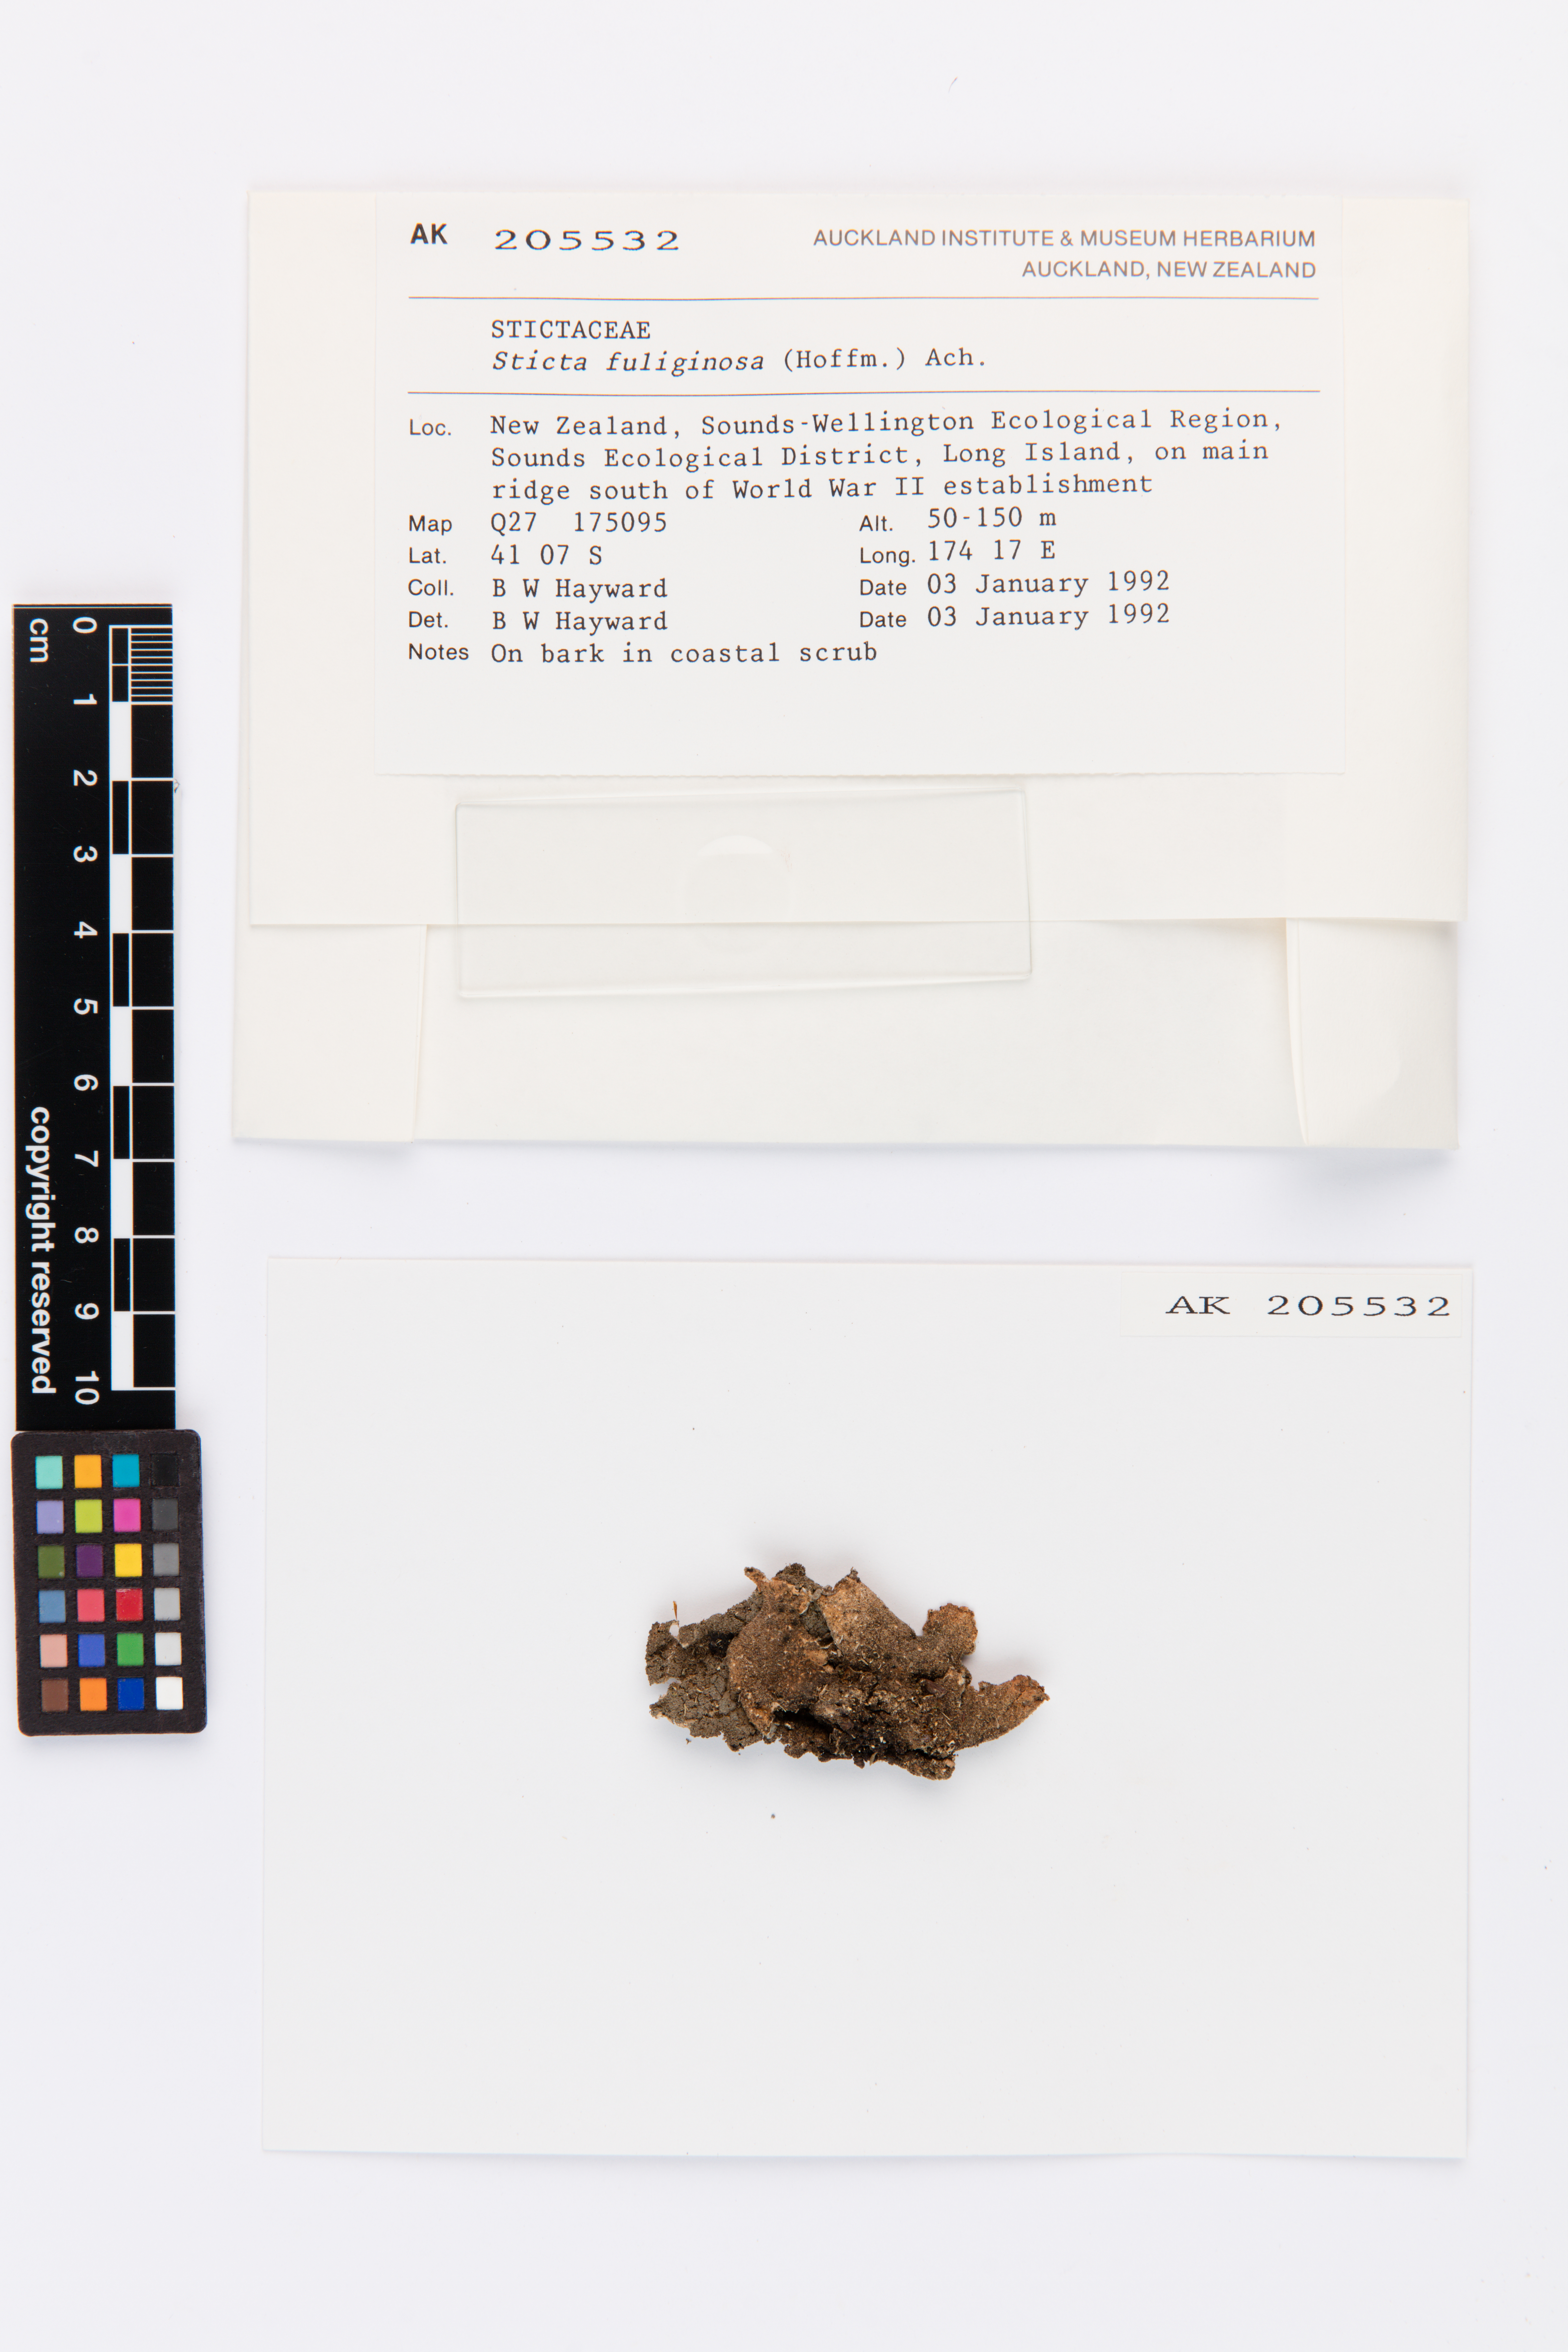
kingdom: Fungi
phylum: Ascomycota
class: Lecanoromycetes
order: Peltigerales
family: Lobariaceae
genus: Sticta
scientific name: Sticta fuliginosa
